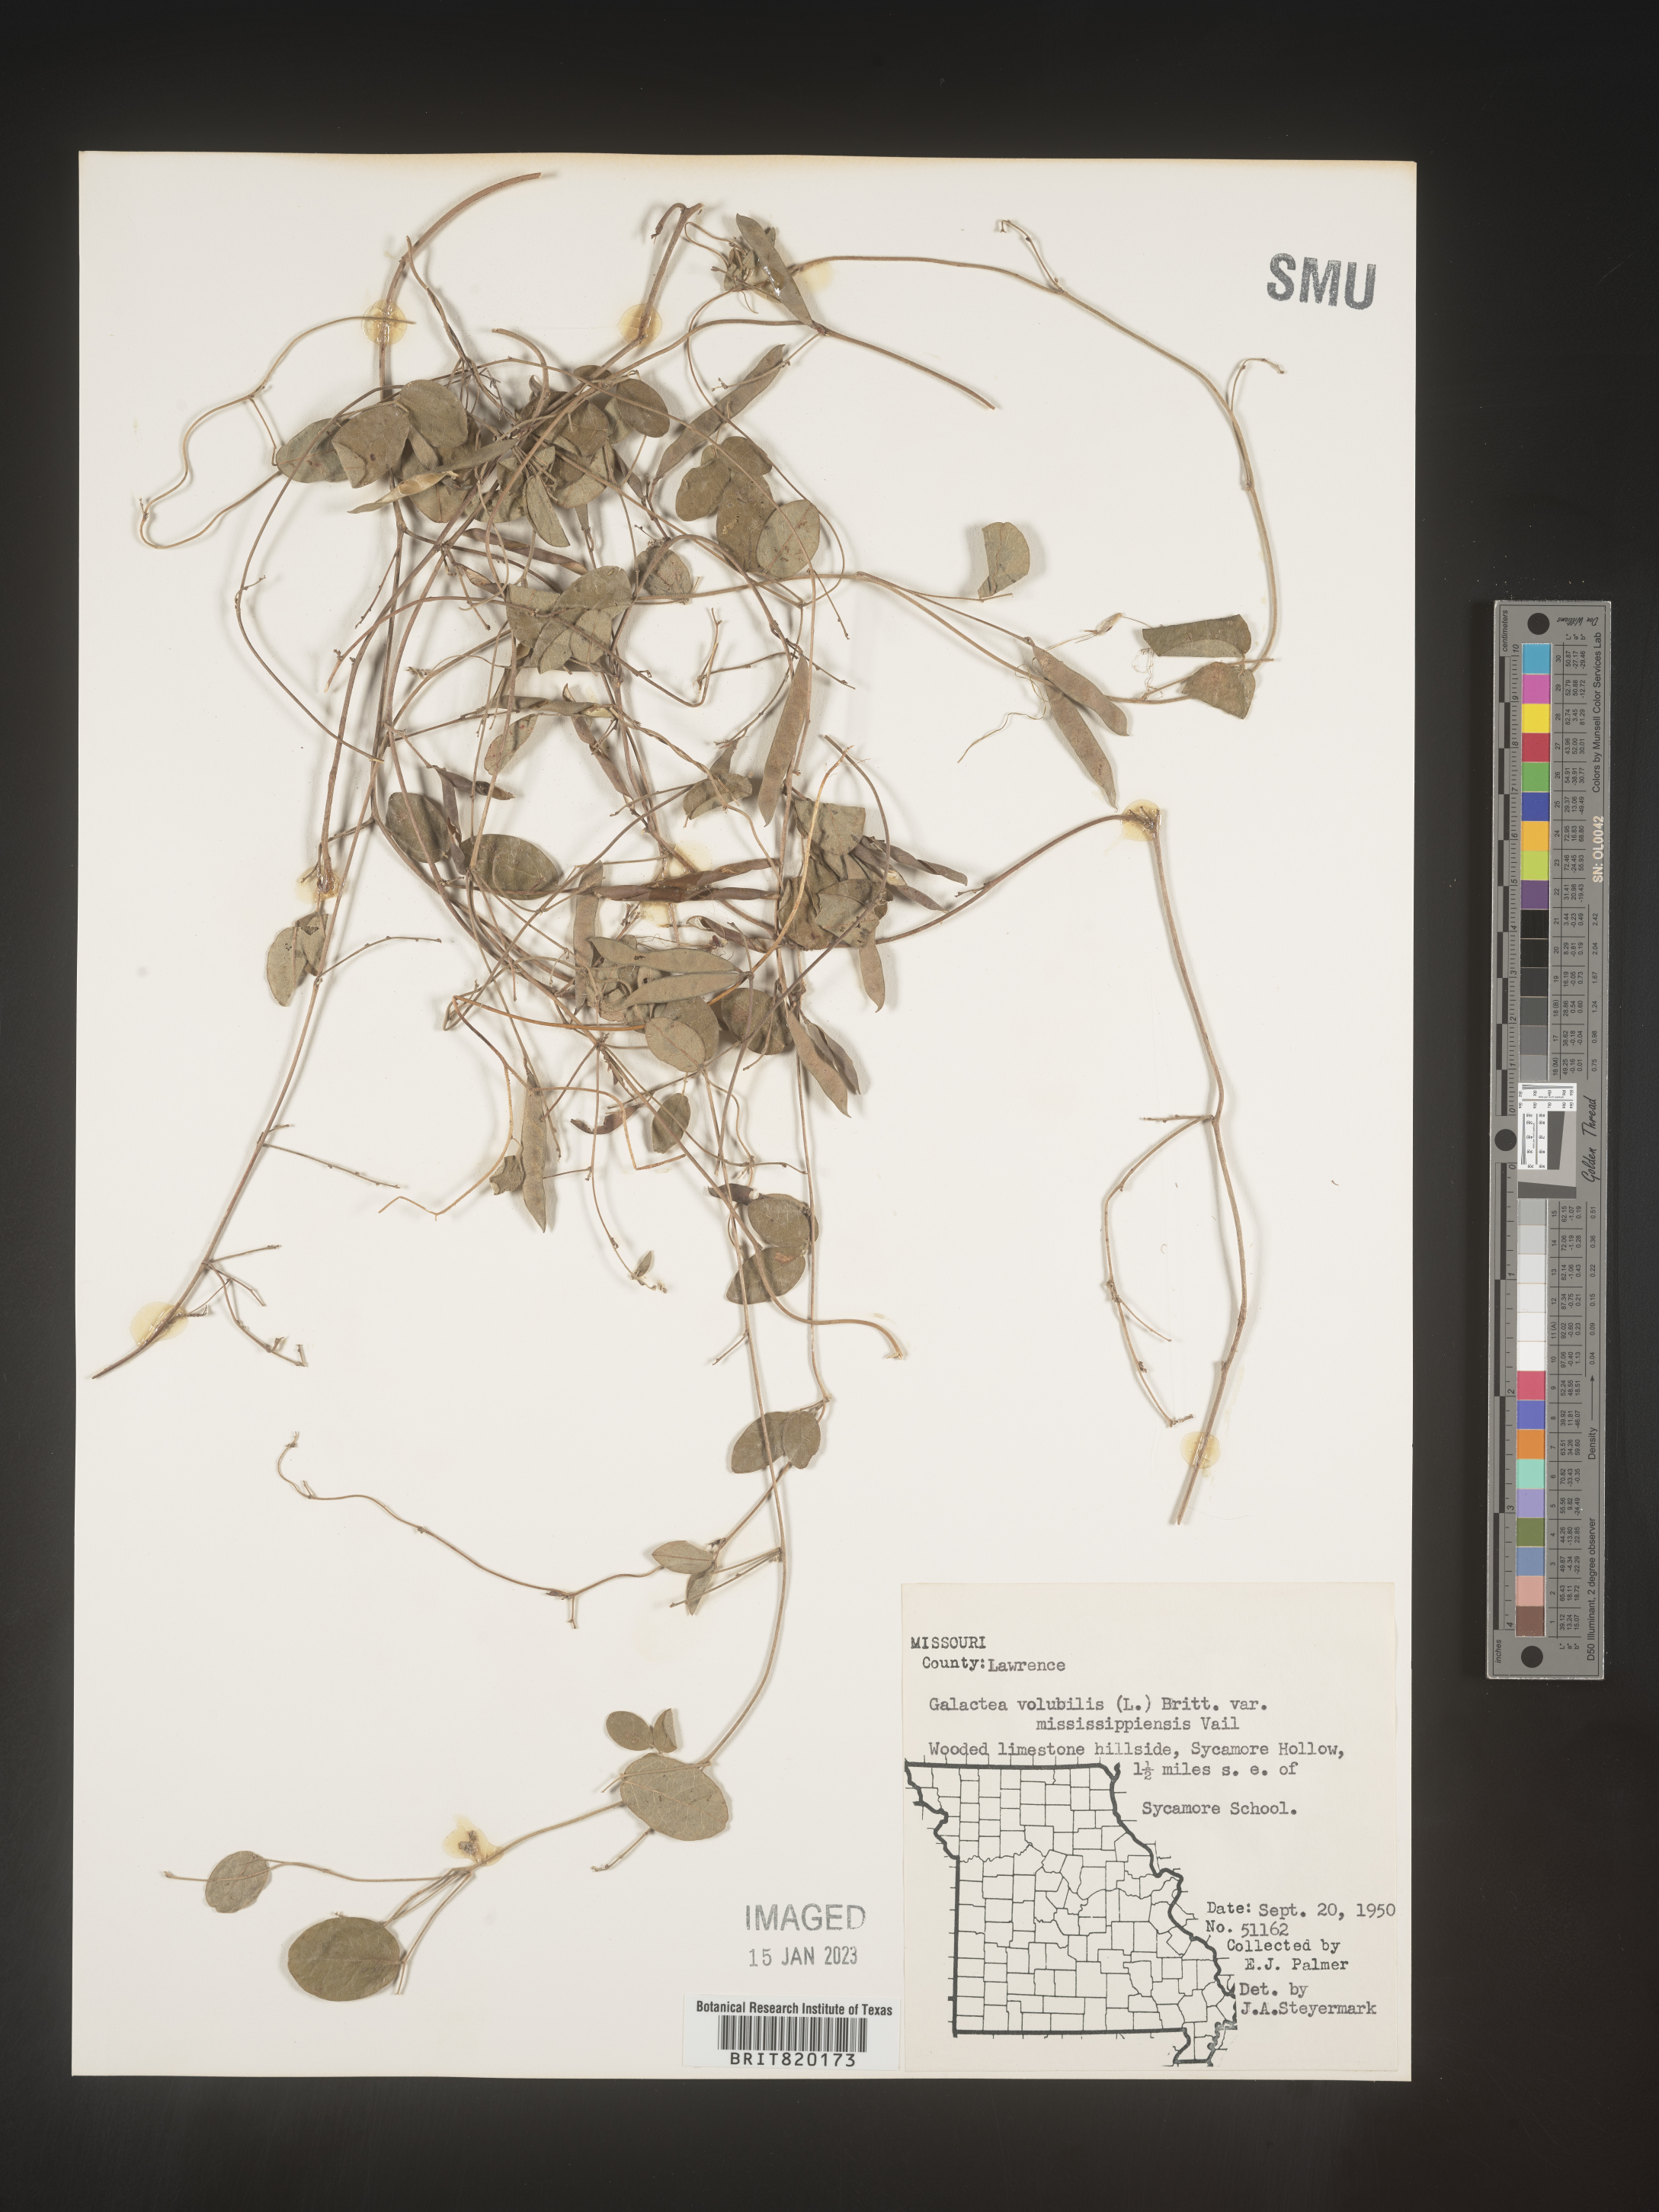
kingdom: Plantae
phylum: Tracheophyta
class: Magnoliopsida
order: Fabales
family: Fabaceae
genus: Galactia
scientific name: Galactia volubilis
